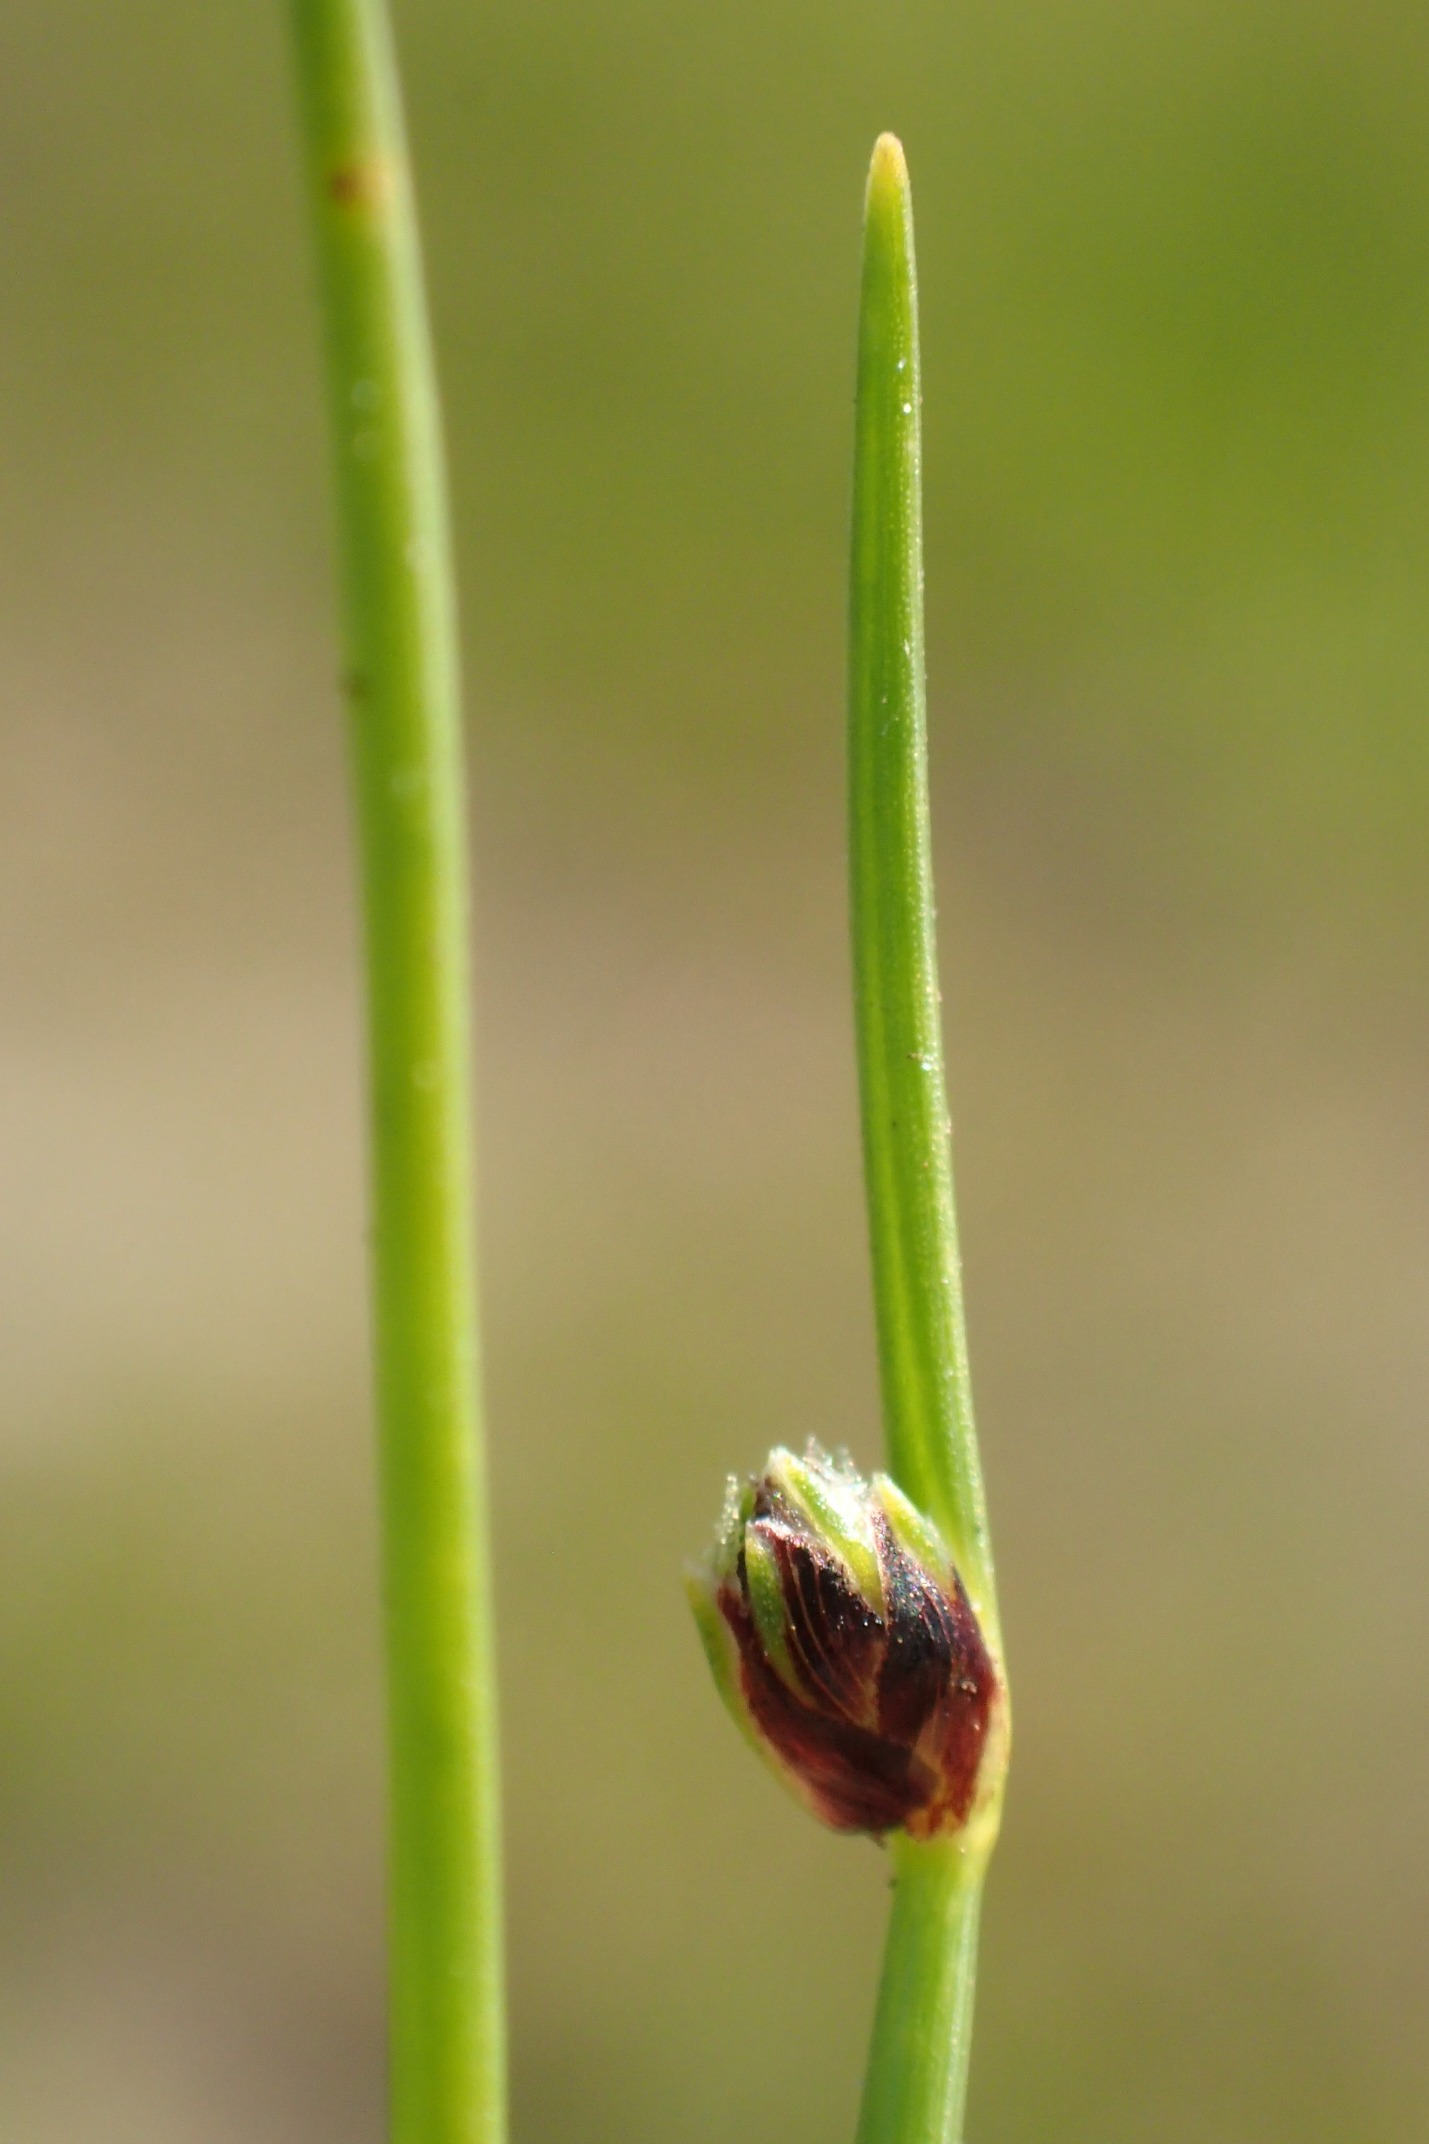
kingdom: Plantae
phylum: Tracheophyta
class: Liliopsida
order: Poales
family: Cyperaceae
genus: Isolepis
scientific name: Isolepis setacea
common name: Børste-kogleaks
